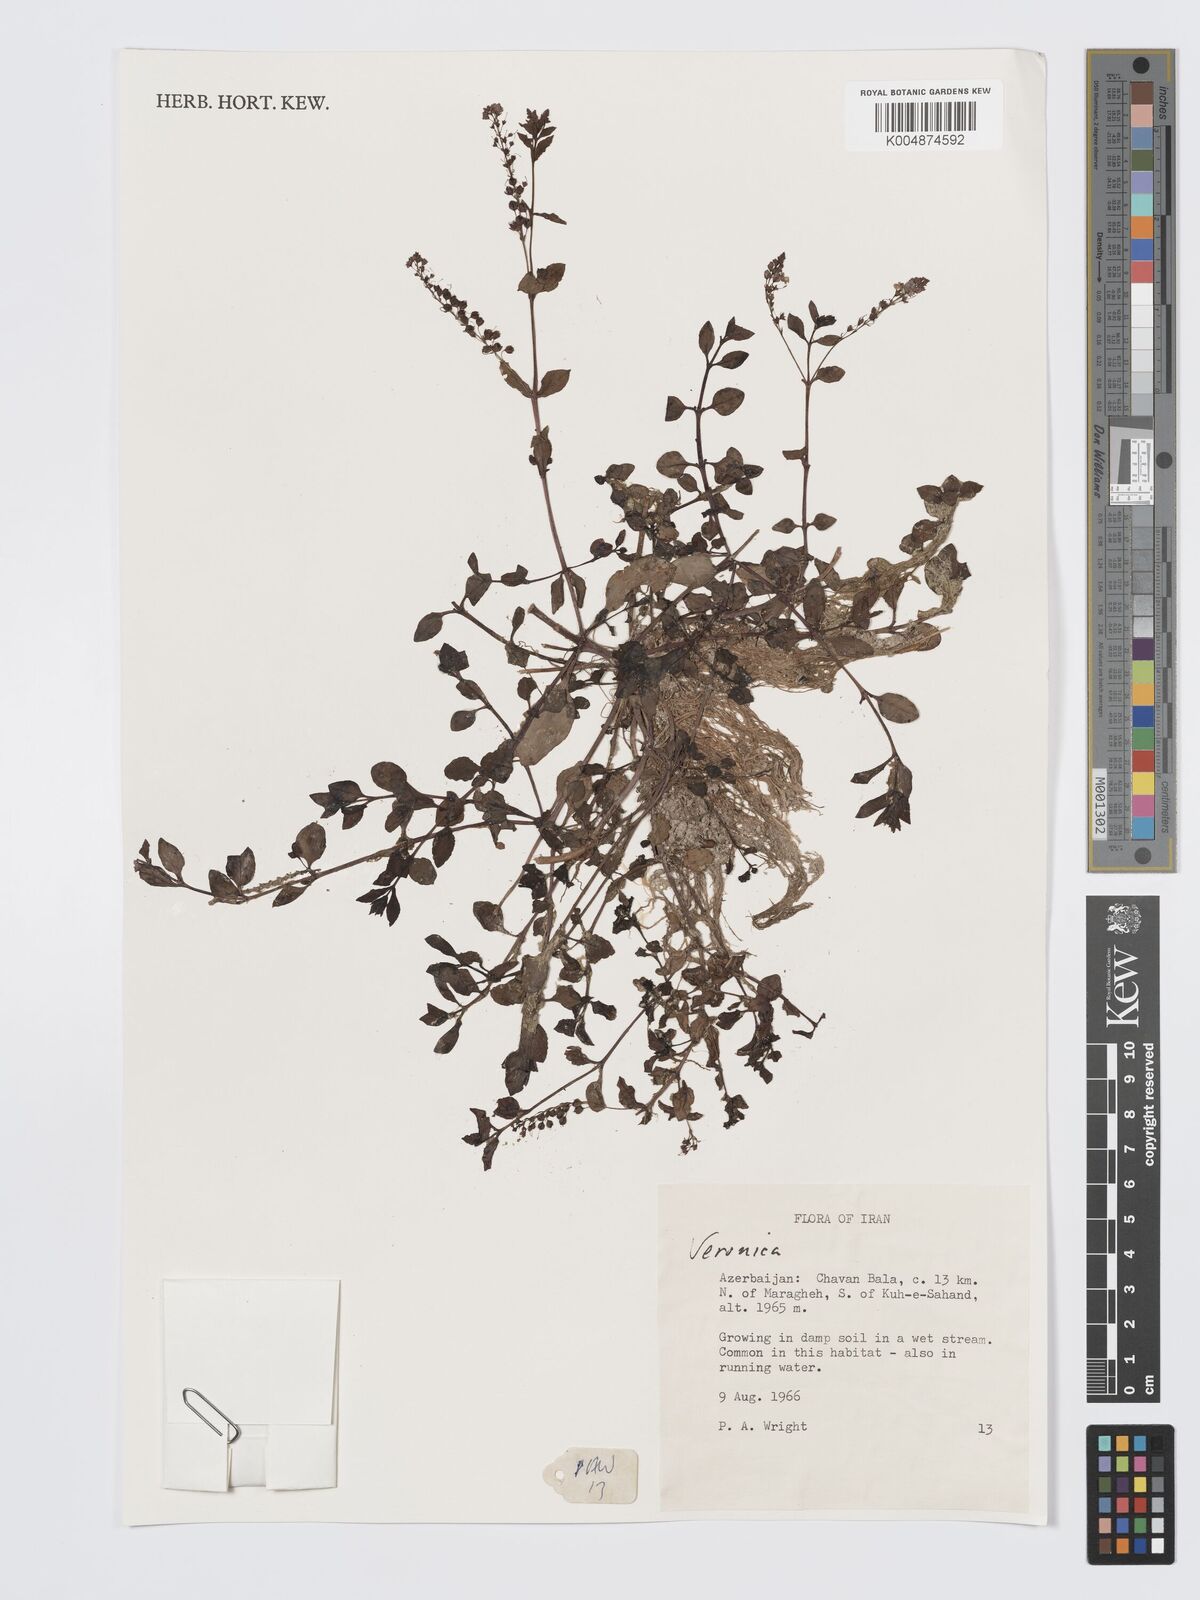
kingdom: Plantae
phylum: Tracheophyta
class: Magnoliopsida
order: Lamiales
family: Plantaginaceae
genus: Veronica
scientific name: Veronica
